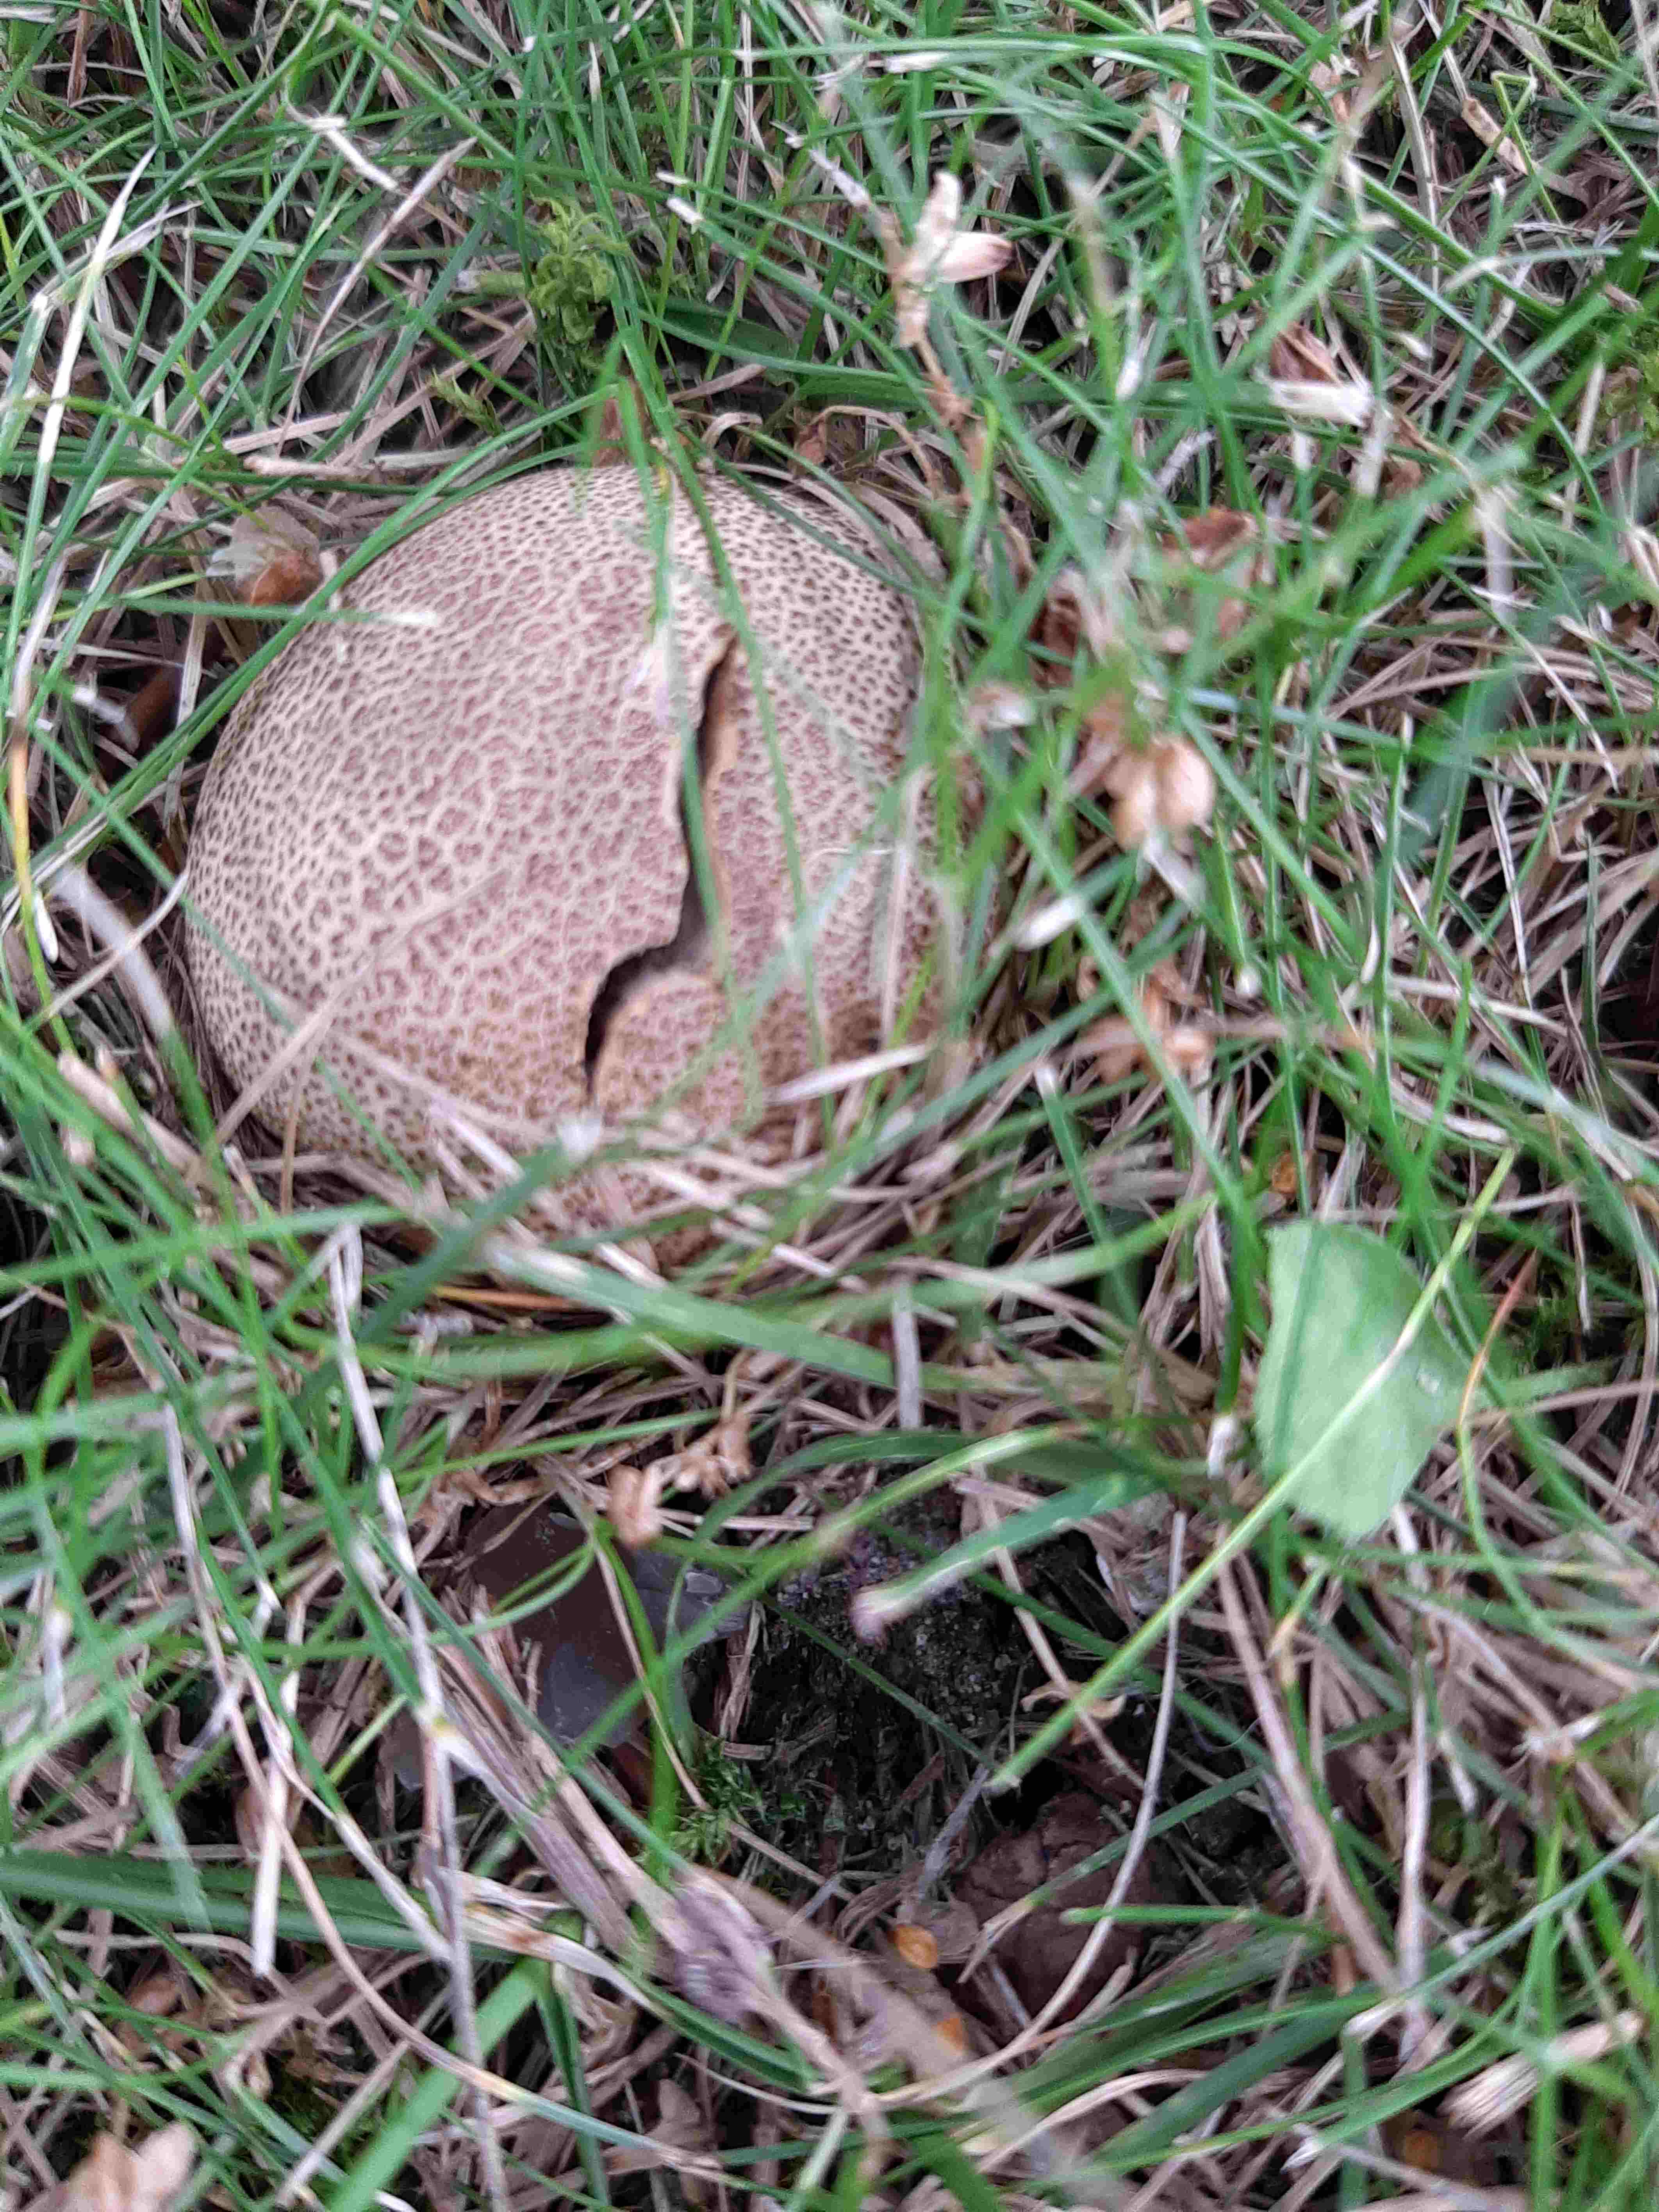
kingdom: Fungi
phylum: Basidiomycota
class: Agaricomycetes
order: Boletales
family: Sclerodermataceae
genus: Scleroderma
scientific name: Scleroderma areolatum
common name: plettet bruskbold
